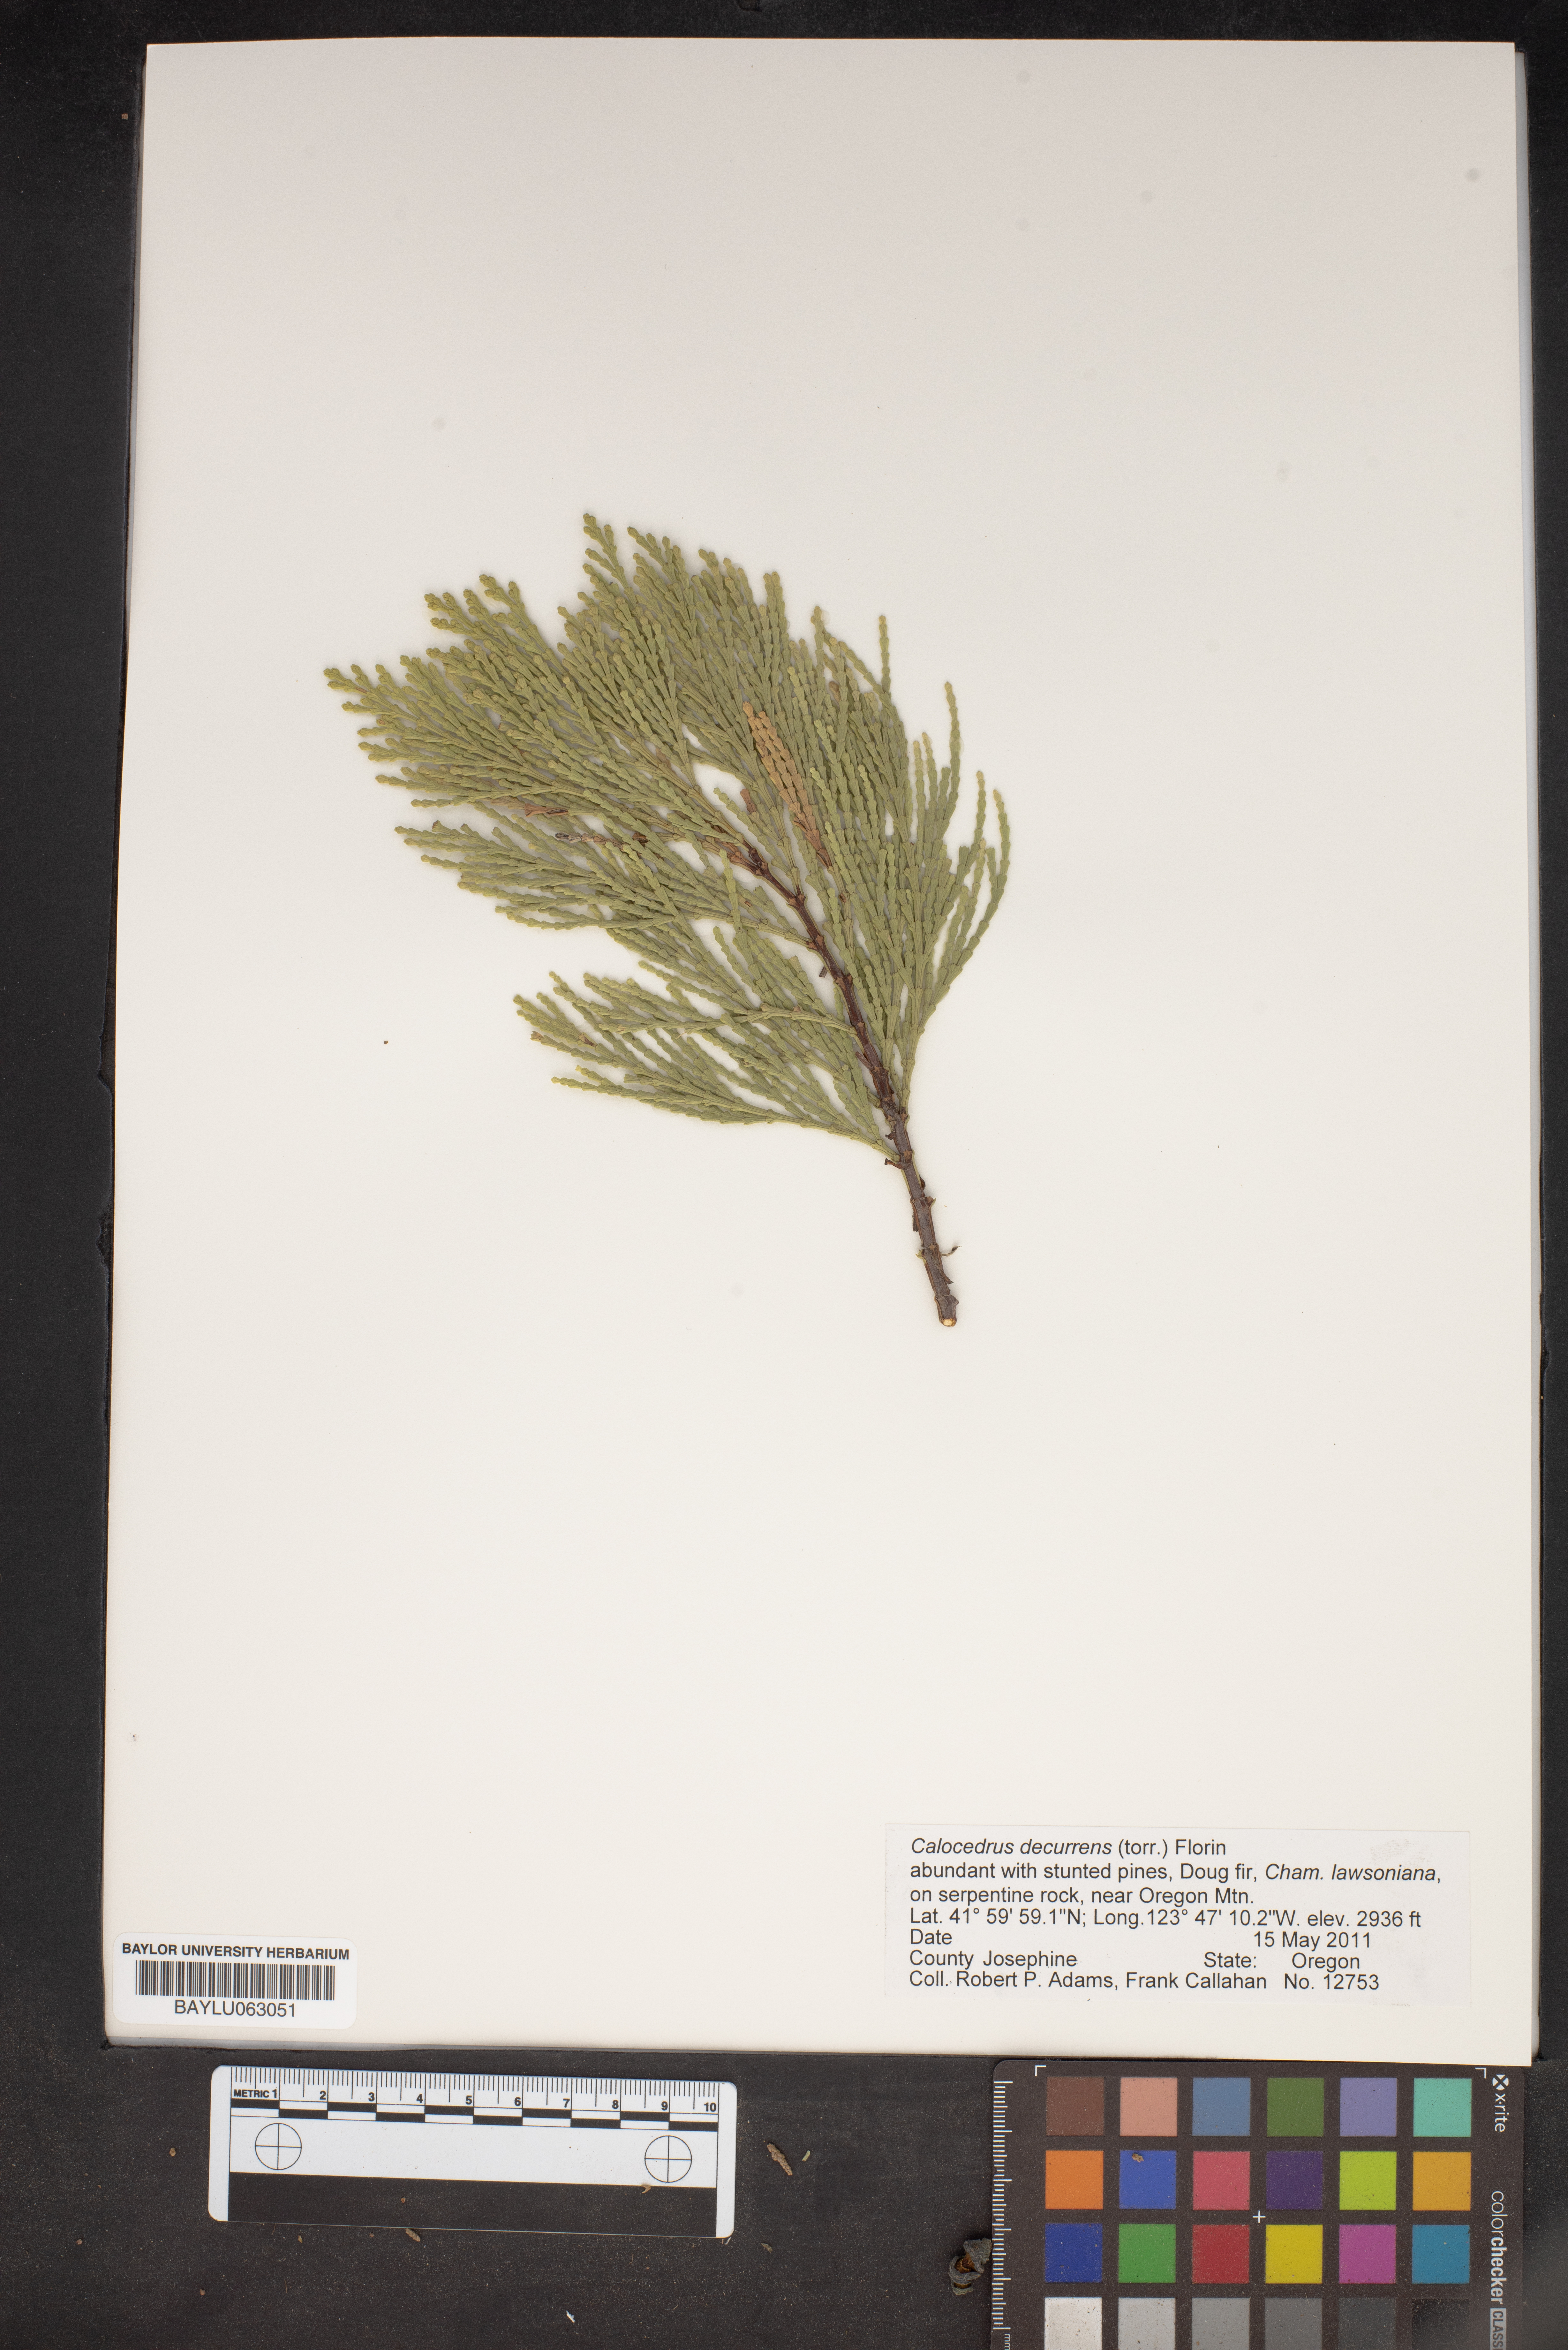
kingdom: Plantae
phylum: Tracheophyta
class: Pinopsida
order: Pinales
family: Cupressaceae
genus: Calocedrus
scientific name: Calocedrus decurrens
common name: Californian incense-cedar
